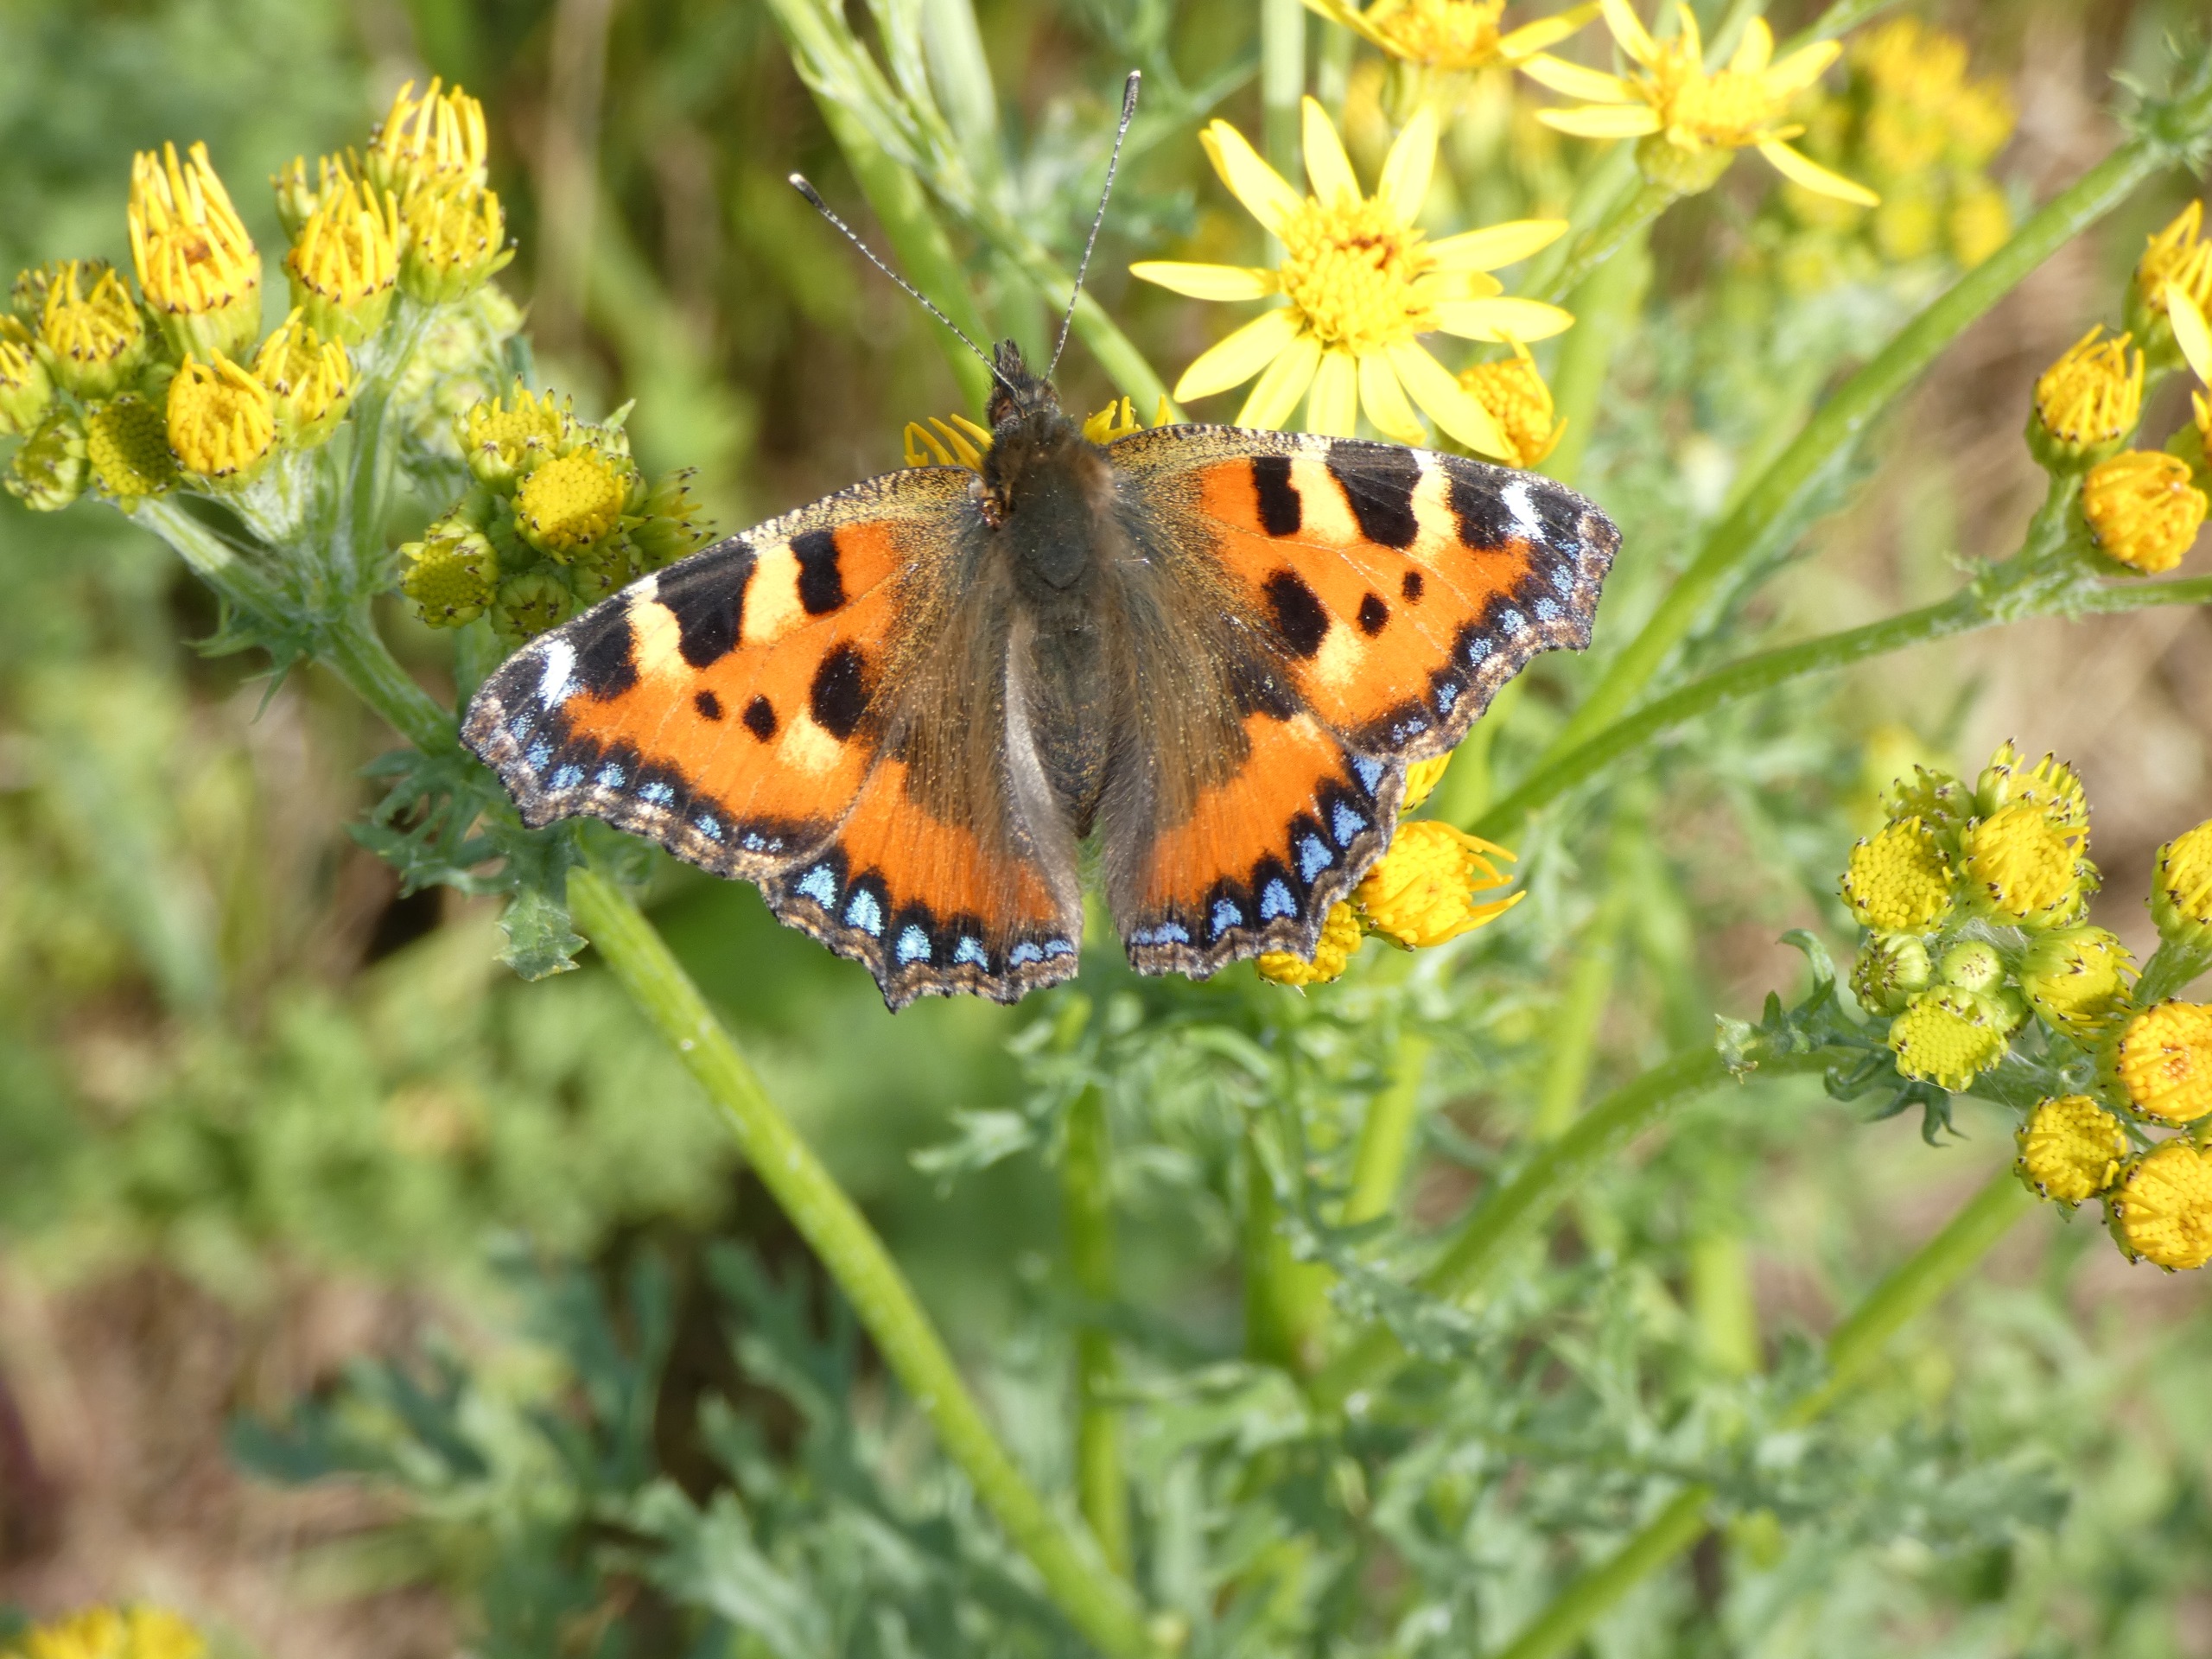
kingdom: Animalia
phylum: Arthropoda
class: Insecta
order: Lepidoptera
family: Nymphalidae
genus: Aglais
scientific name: Aglais urticae
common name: Nældens takvinge
